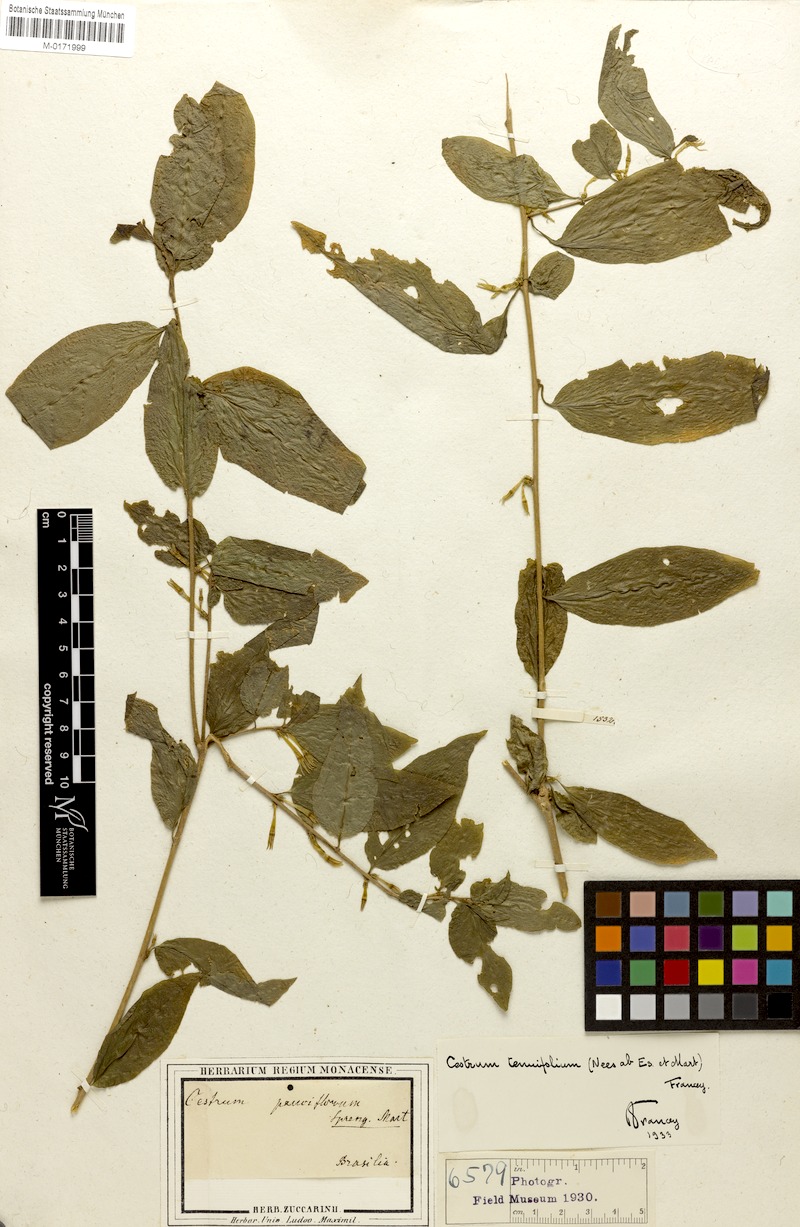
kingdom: Plantae
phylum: Tracheophyta
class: Magnoliopsida
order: Solanales
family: Solanaceae
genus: Cestrum
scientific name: Cestrum tenuifolium
